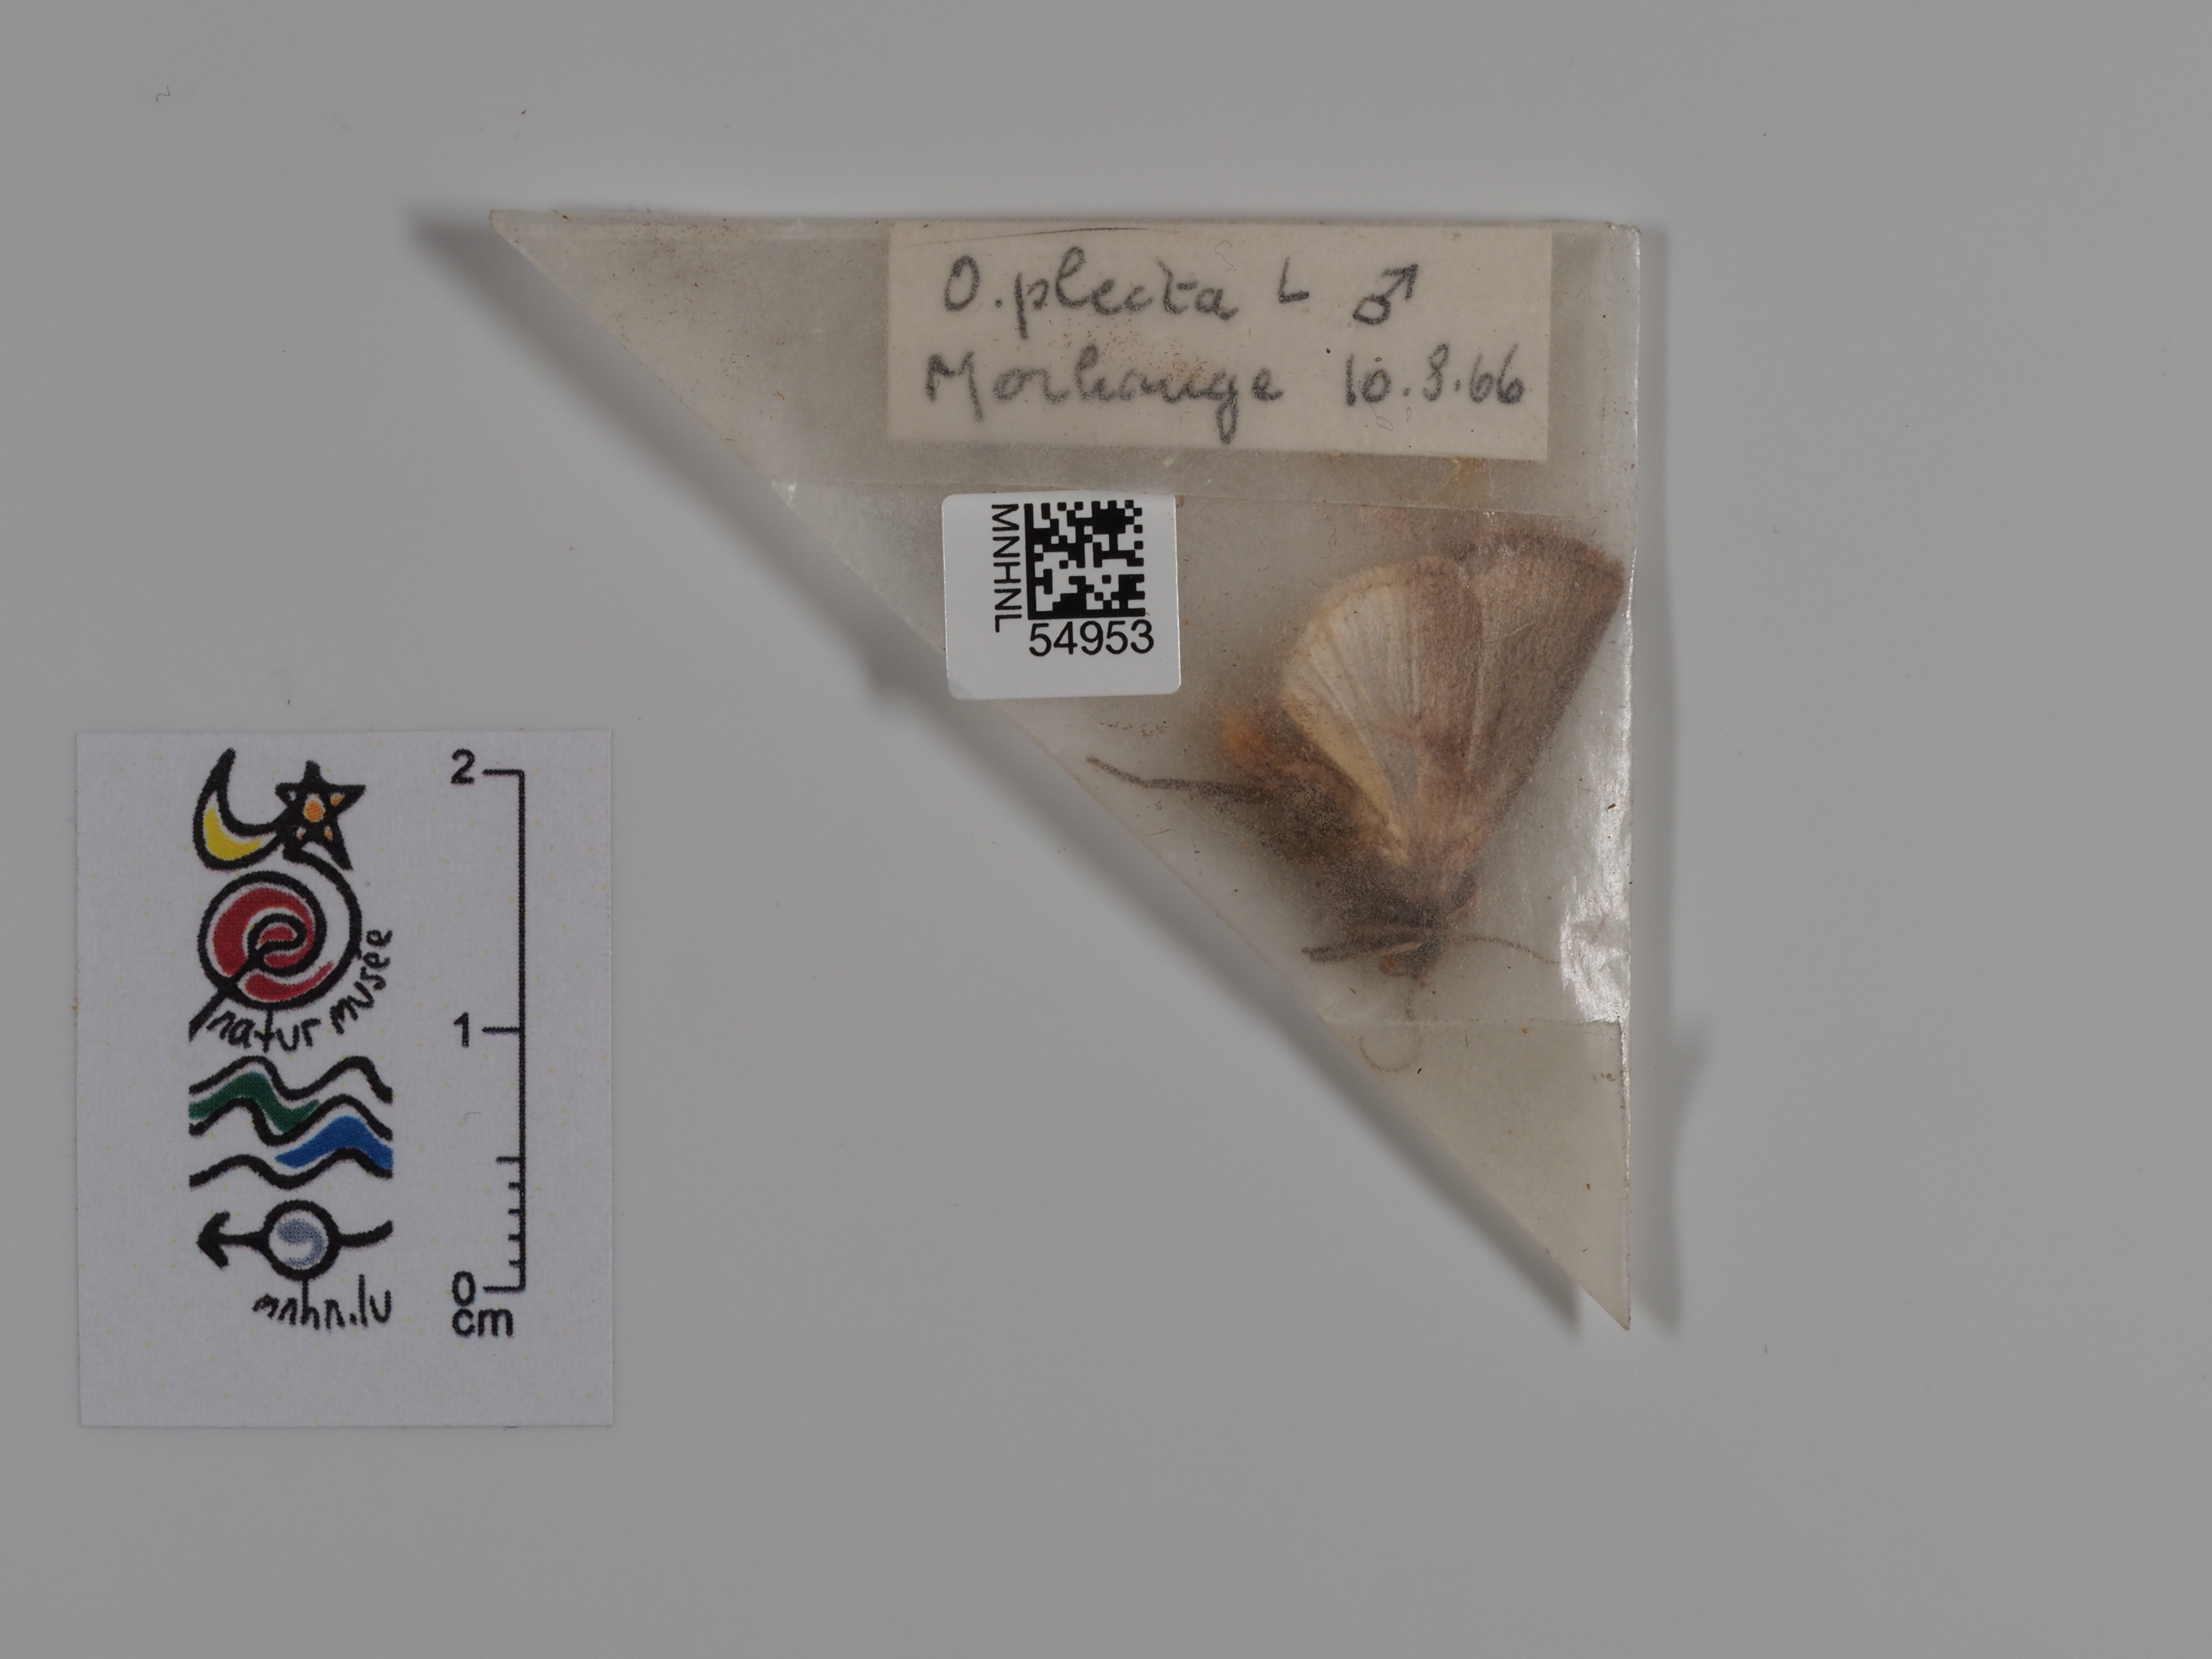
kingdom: Animalia
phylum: Arthropoda
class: Insecta
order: Lepidoptera
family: Noctuidae
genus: Ochropleura
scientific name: Ochropleura plecta
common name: Flame shoulder
